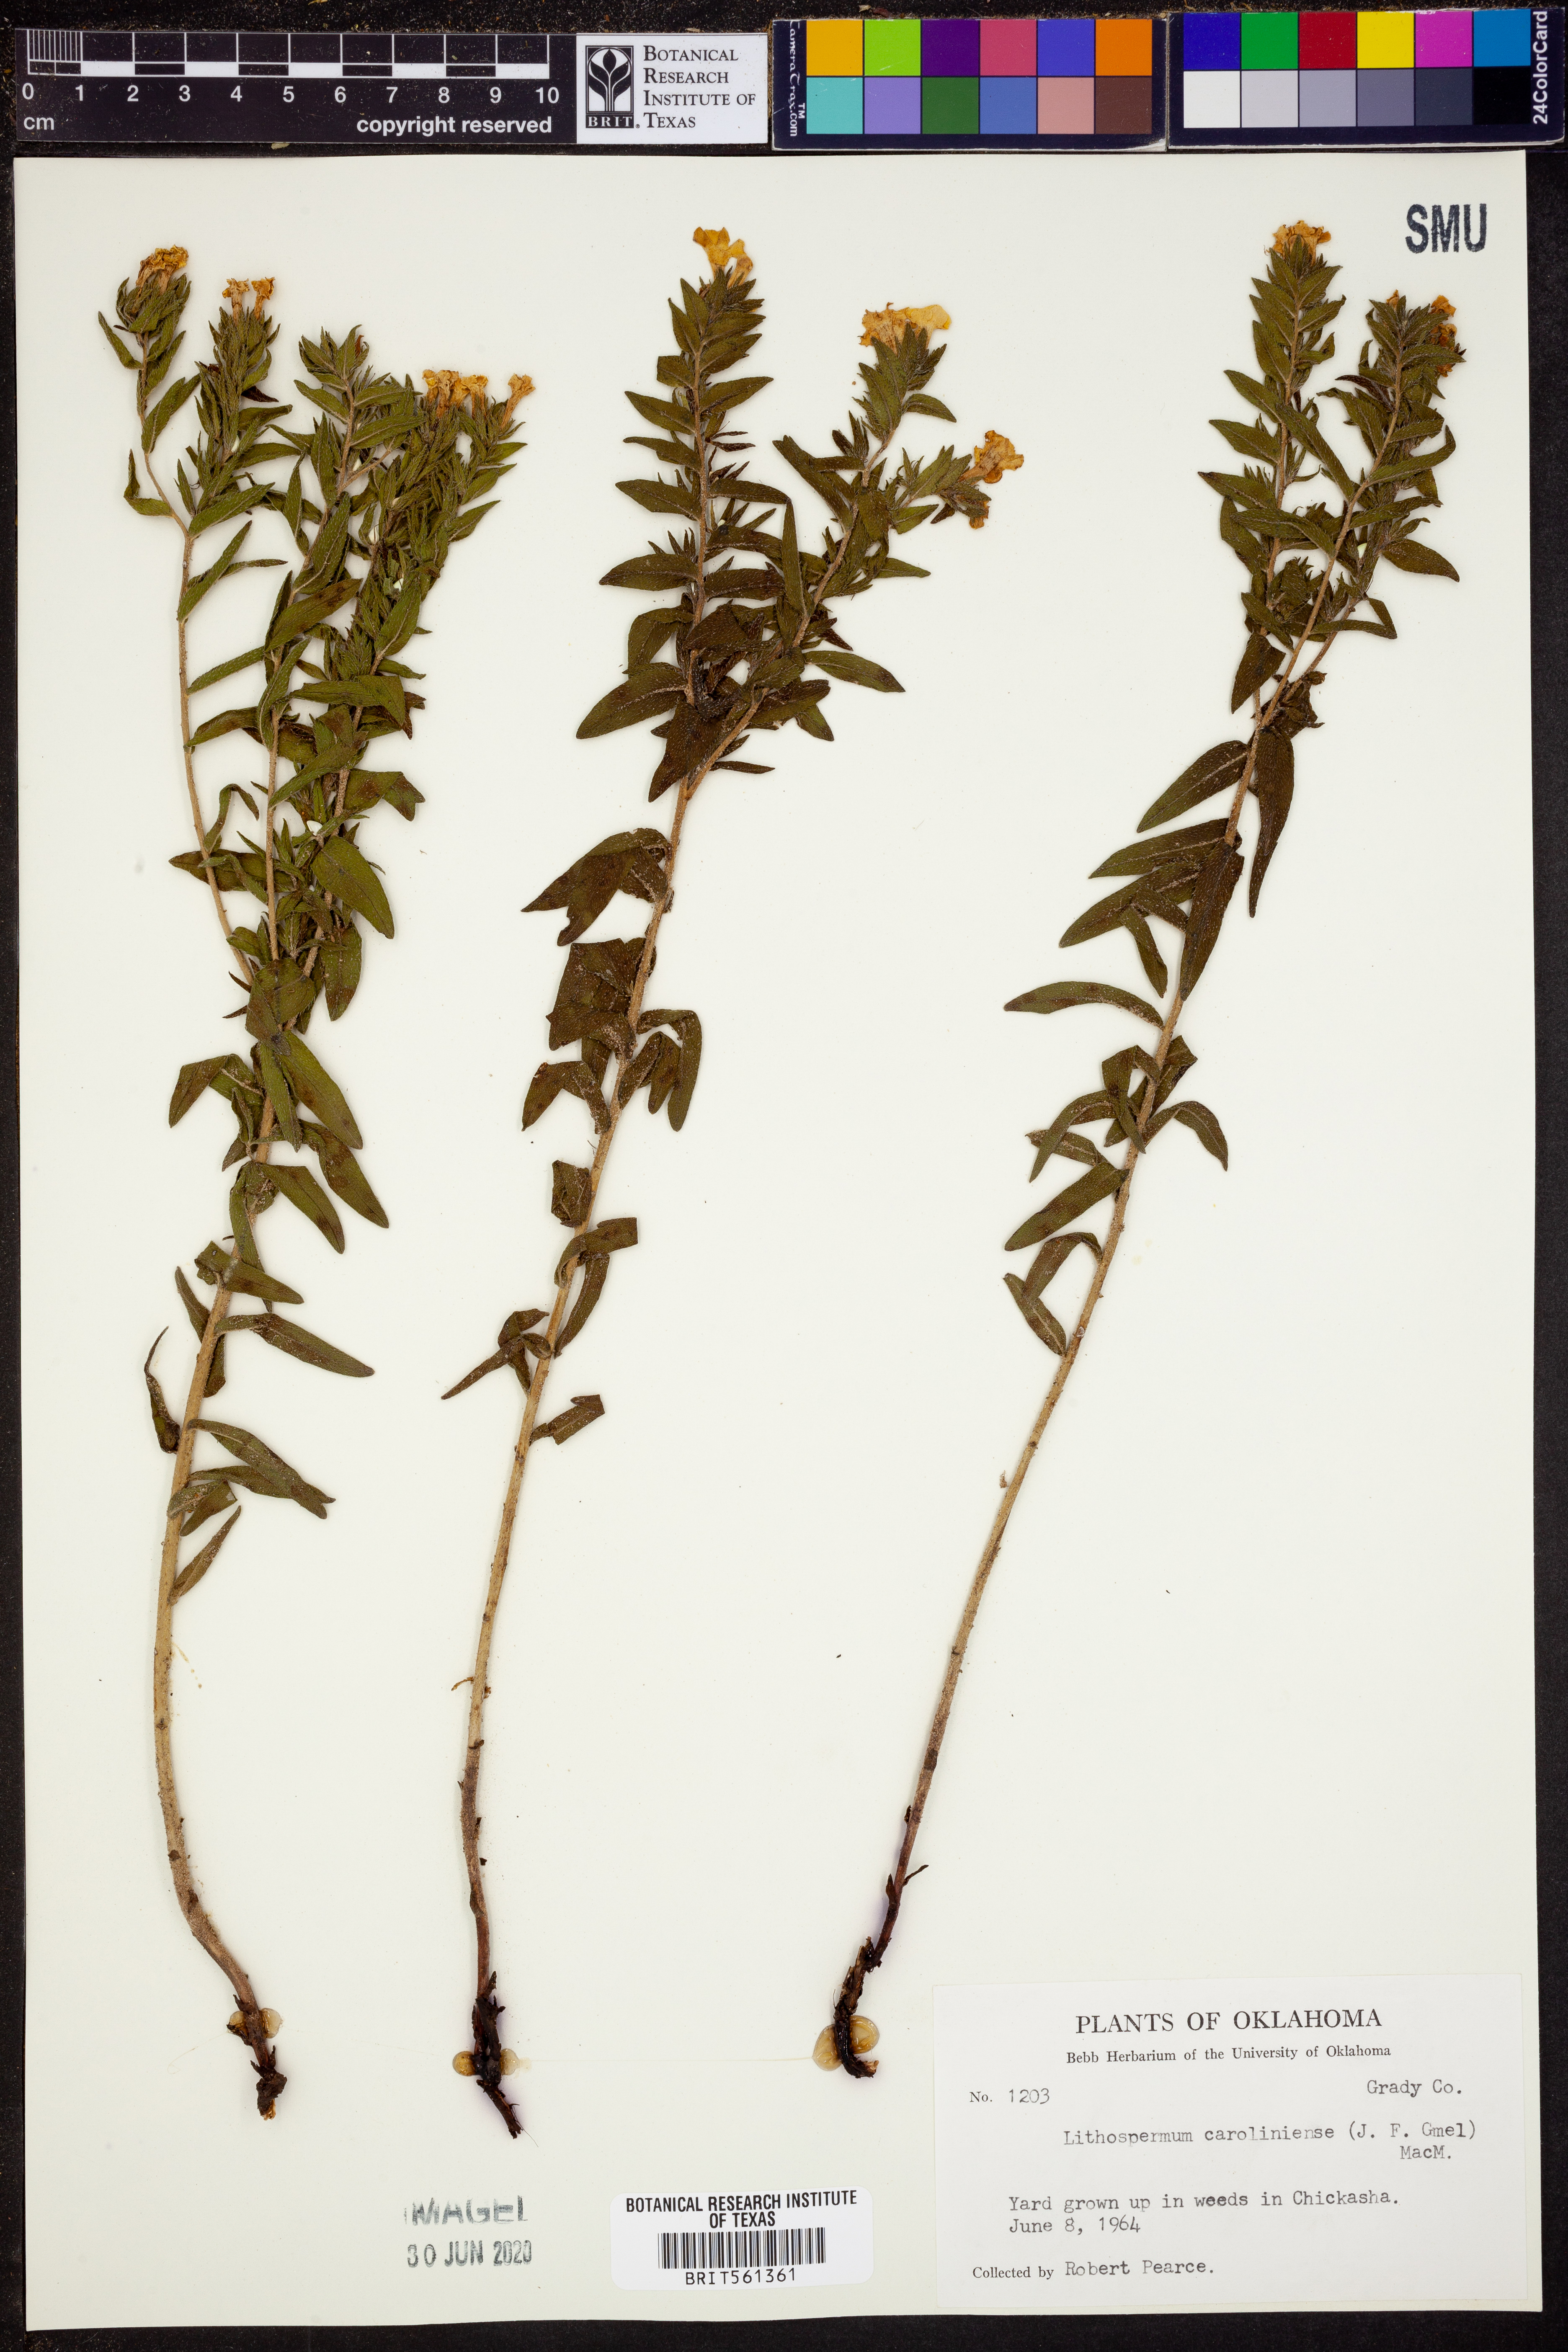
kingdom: Plantae
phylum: Tracheophyta
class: Magnoliopsida
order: Boraginales
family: Boraginaceae
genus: Lithospermum
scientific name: Lithospermum caroliniense
